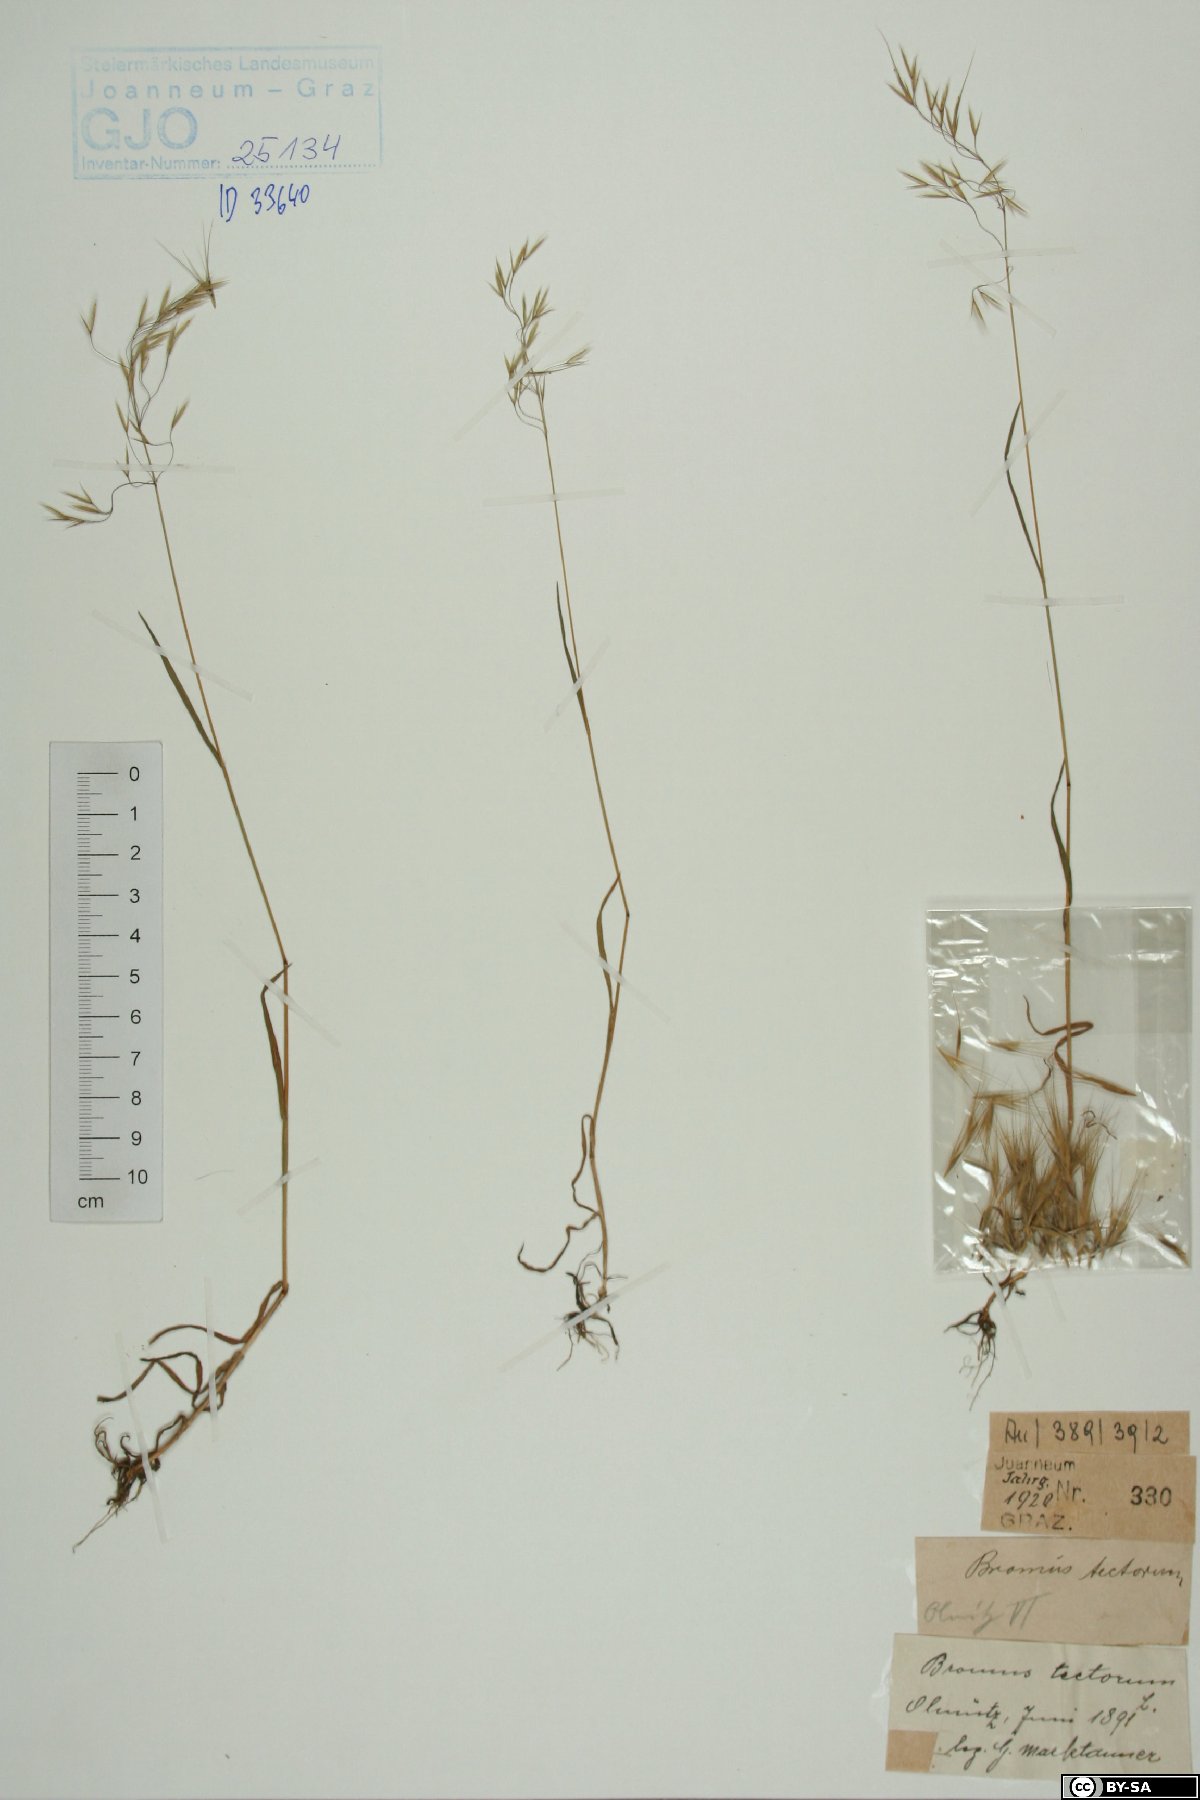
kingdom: Plantae
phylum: Tracheophyta
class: Liliopsida
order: Poales
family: Poaceae
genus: Bromus
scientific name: Bromus tectorum
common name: Cheatgrass
